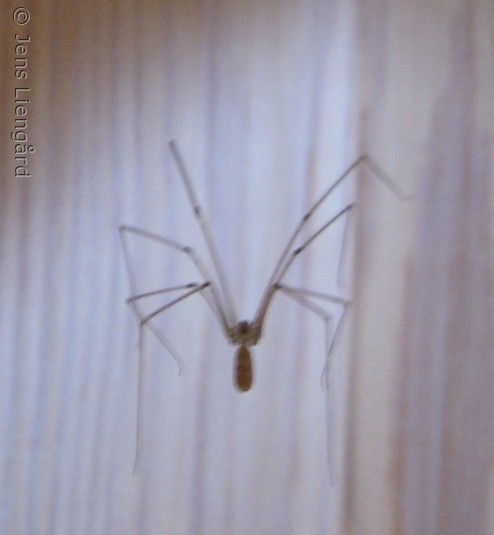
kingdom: Animalia
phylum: Arthropoda
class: Arachnida
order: Araneae
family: Pholcidae
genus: Pholcus
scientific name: Pholcus phalangioides
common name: Mejeredderkop
